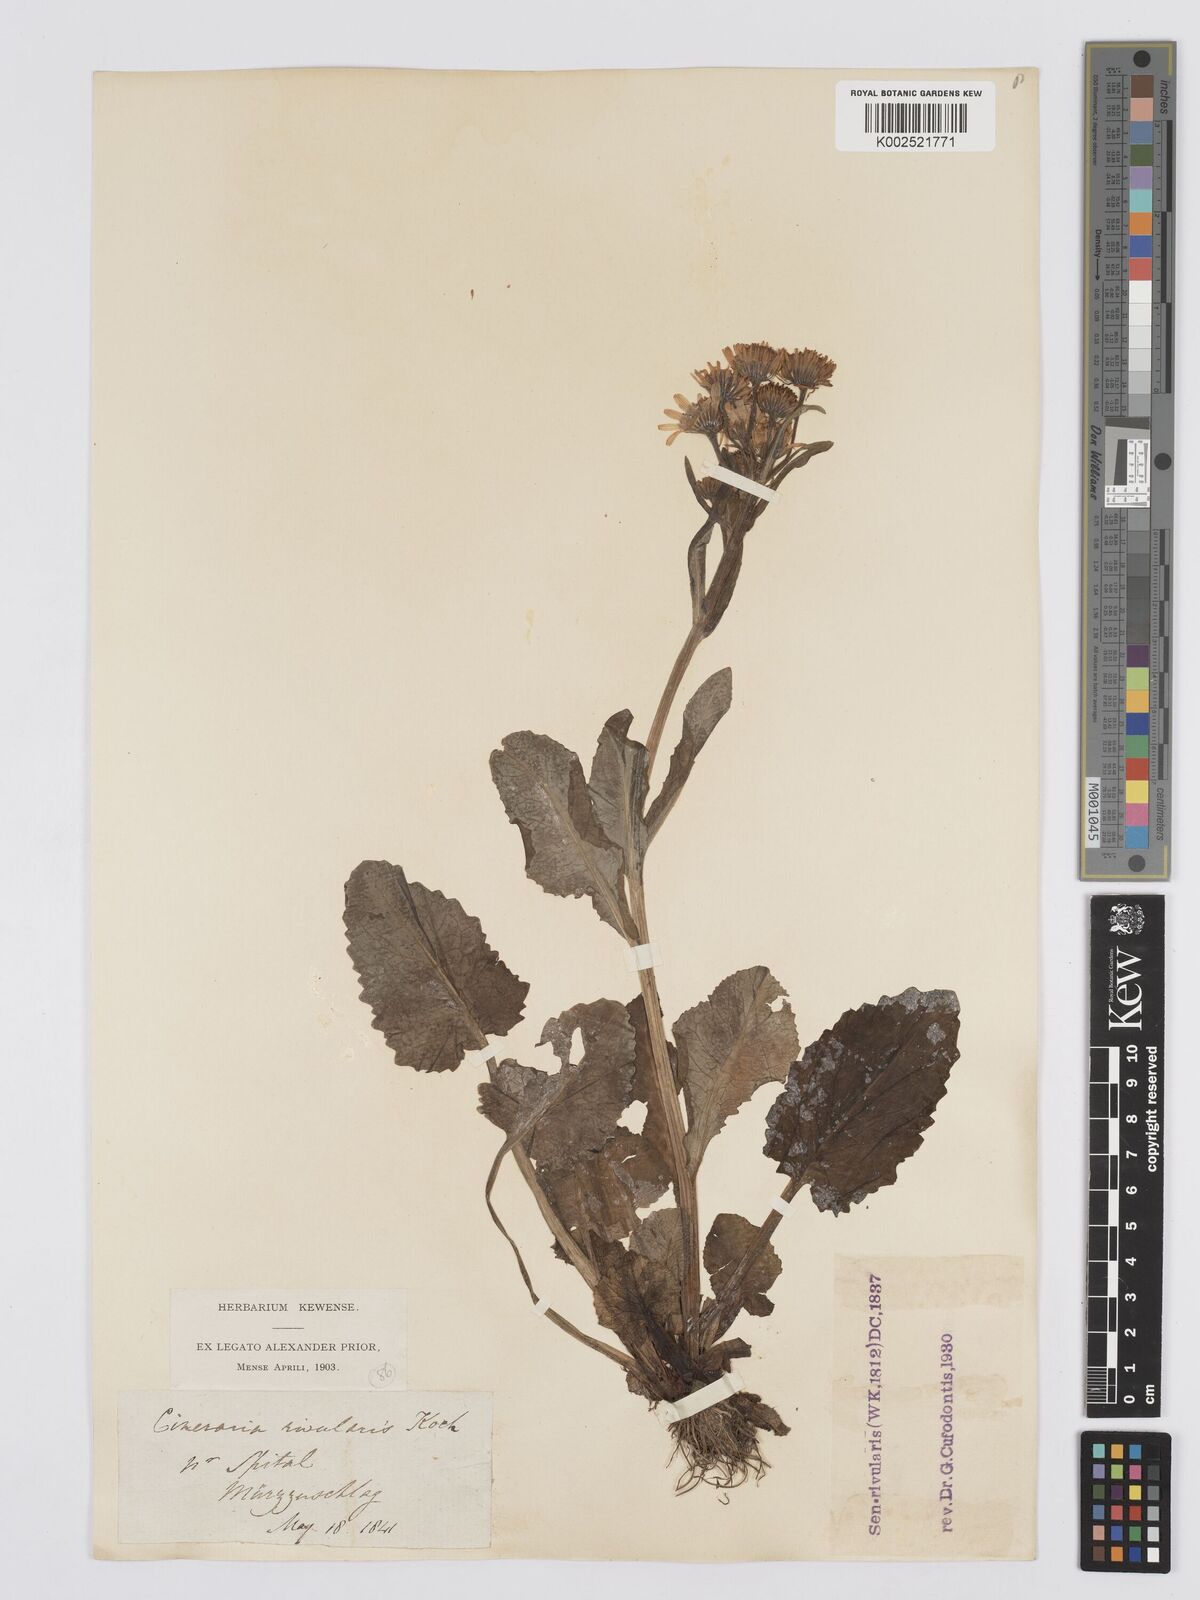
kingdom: Plantae
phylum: Tracheophyta
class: Magnoliopsida
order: Asterales
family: Asteraceae
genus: Tephroseris
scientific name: Tephroseris crispa
